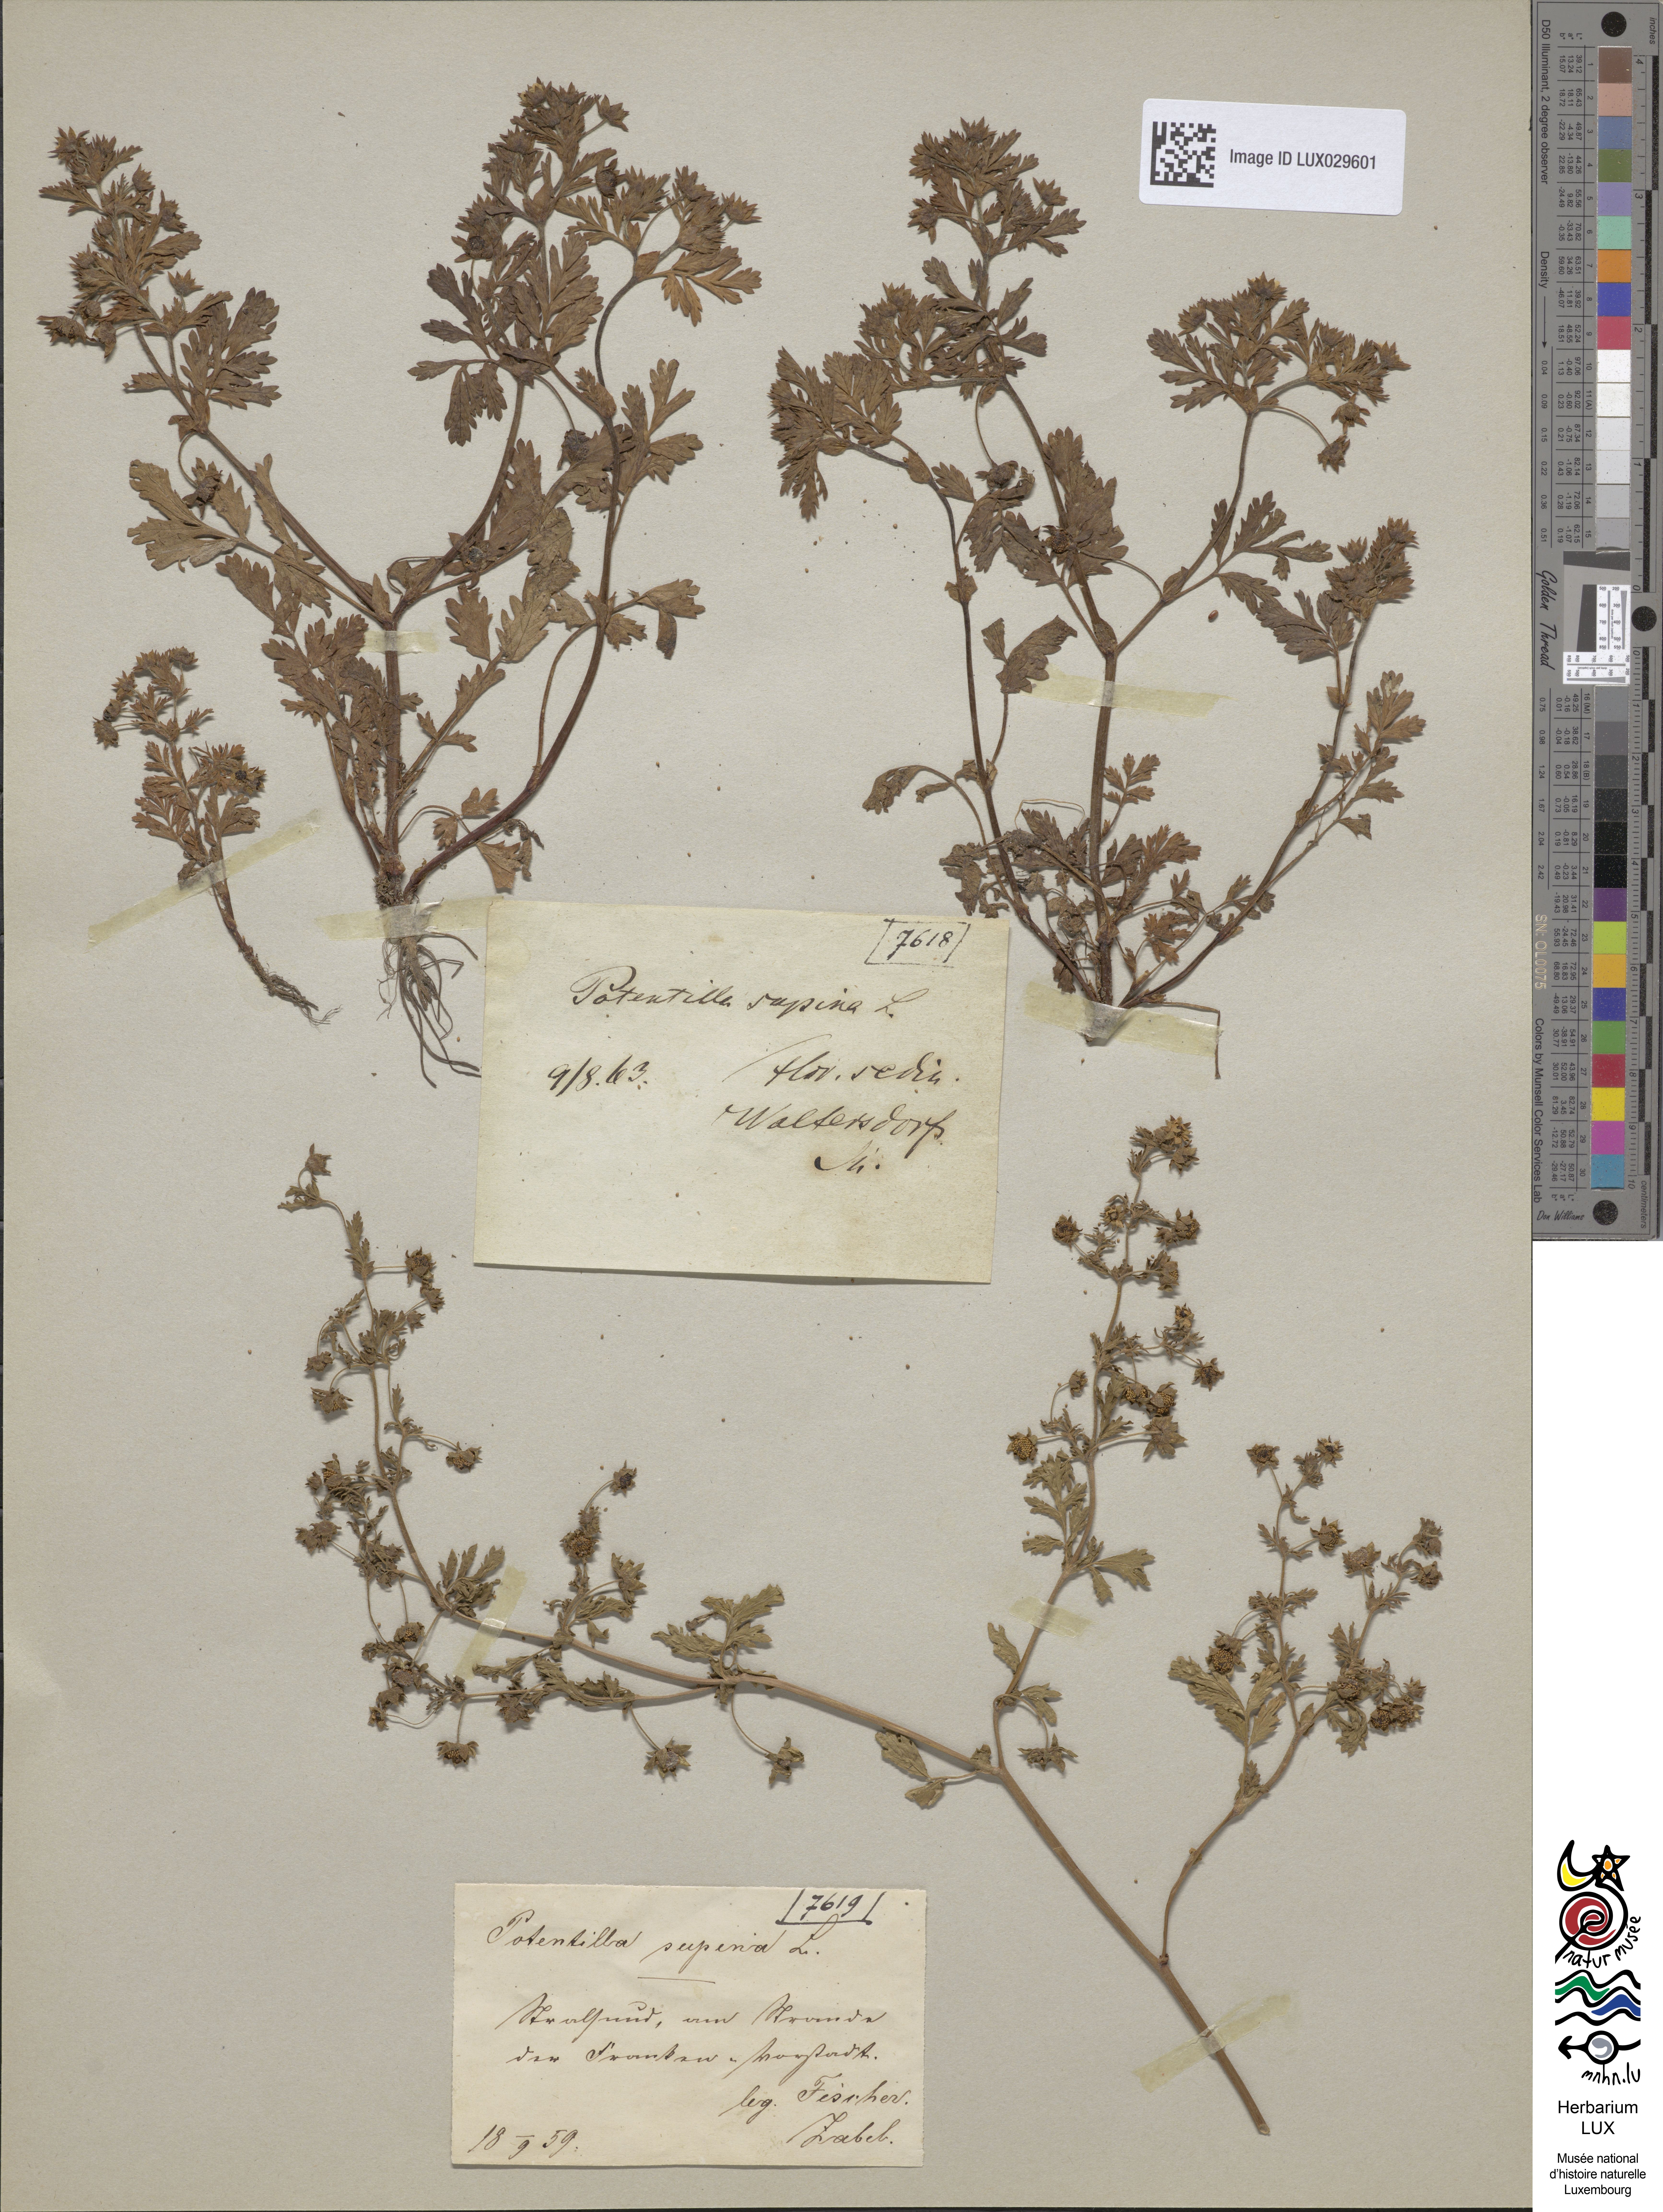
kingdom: Plantae
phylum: Tracheophyta
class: Magnoliopsida
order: Rosales
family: Rosaceae
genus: Potentilla
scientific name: Potentilla supina
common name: Prostrate cinquefoil
